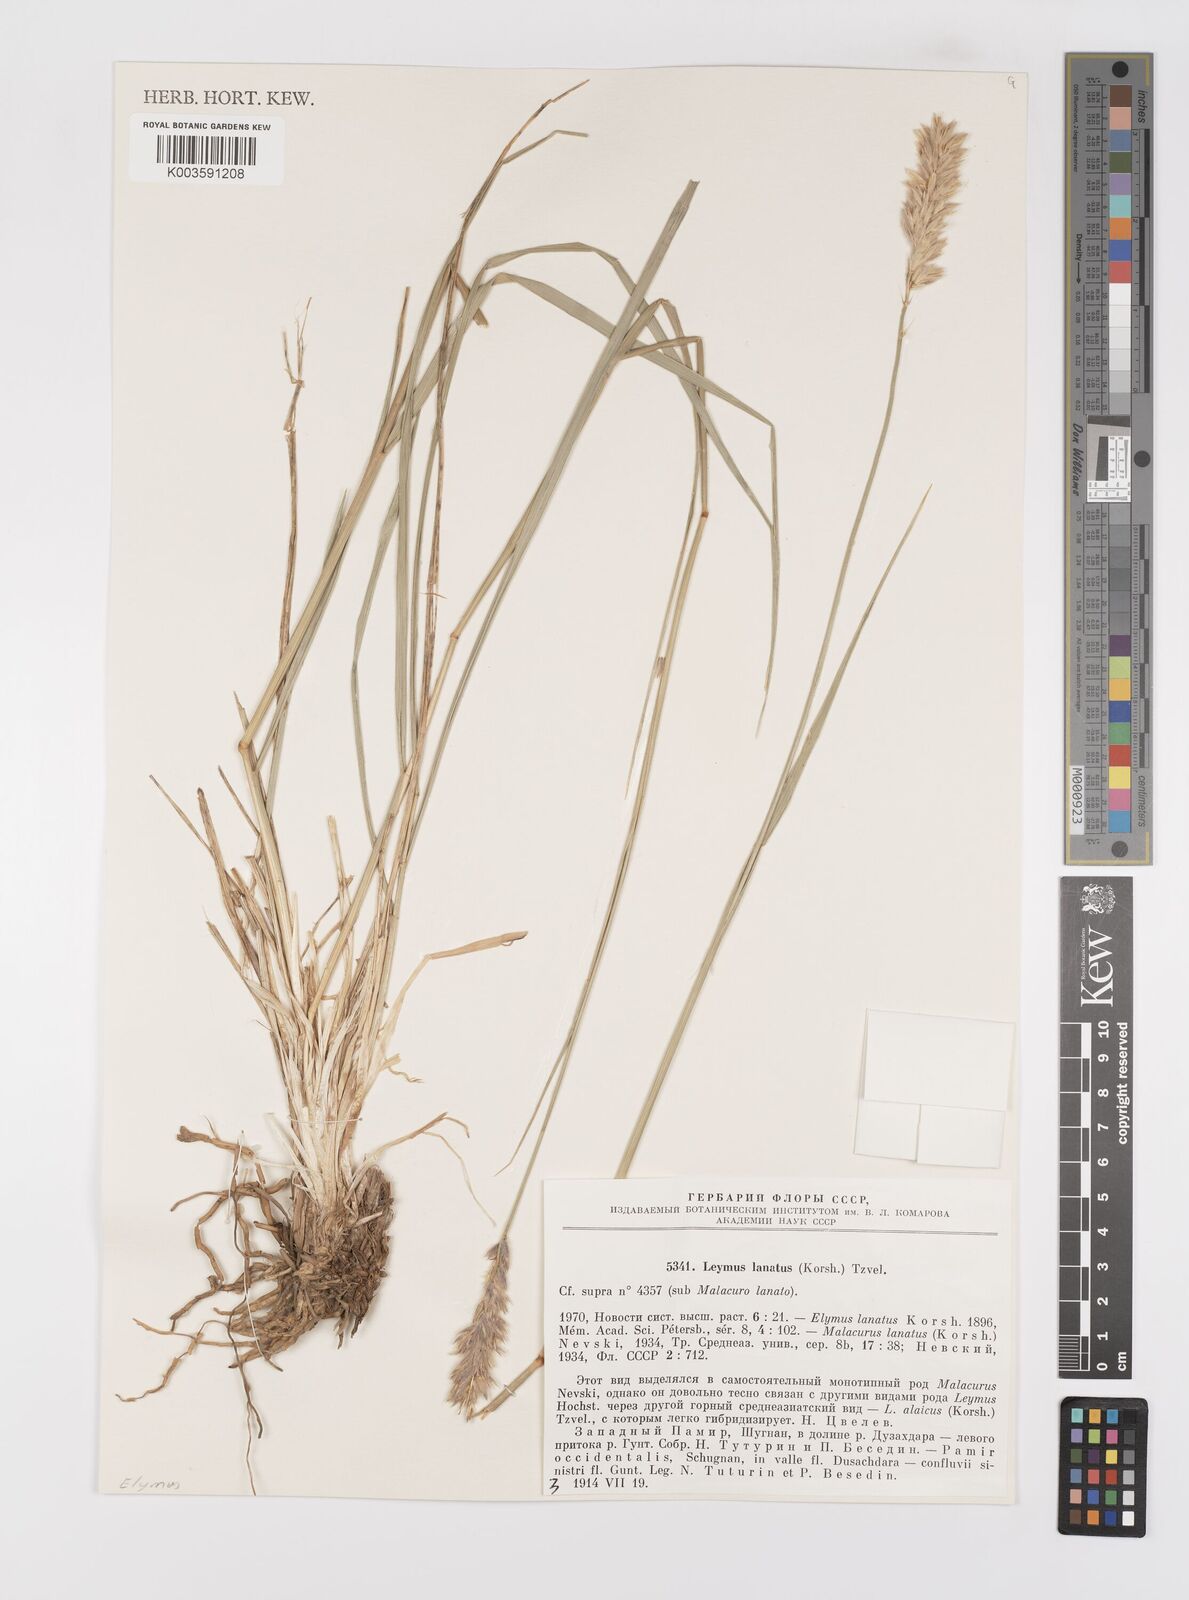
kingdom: Plantae
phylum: Tracheophyta
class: Liliopsida
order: Poales
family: Poaceae
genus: Leymus
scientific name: Leymus lanatus
